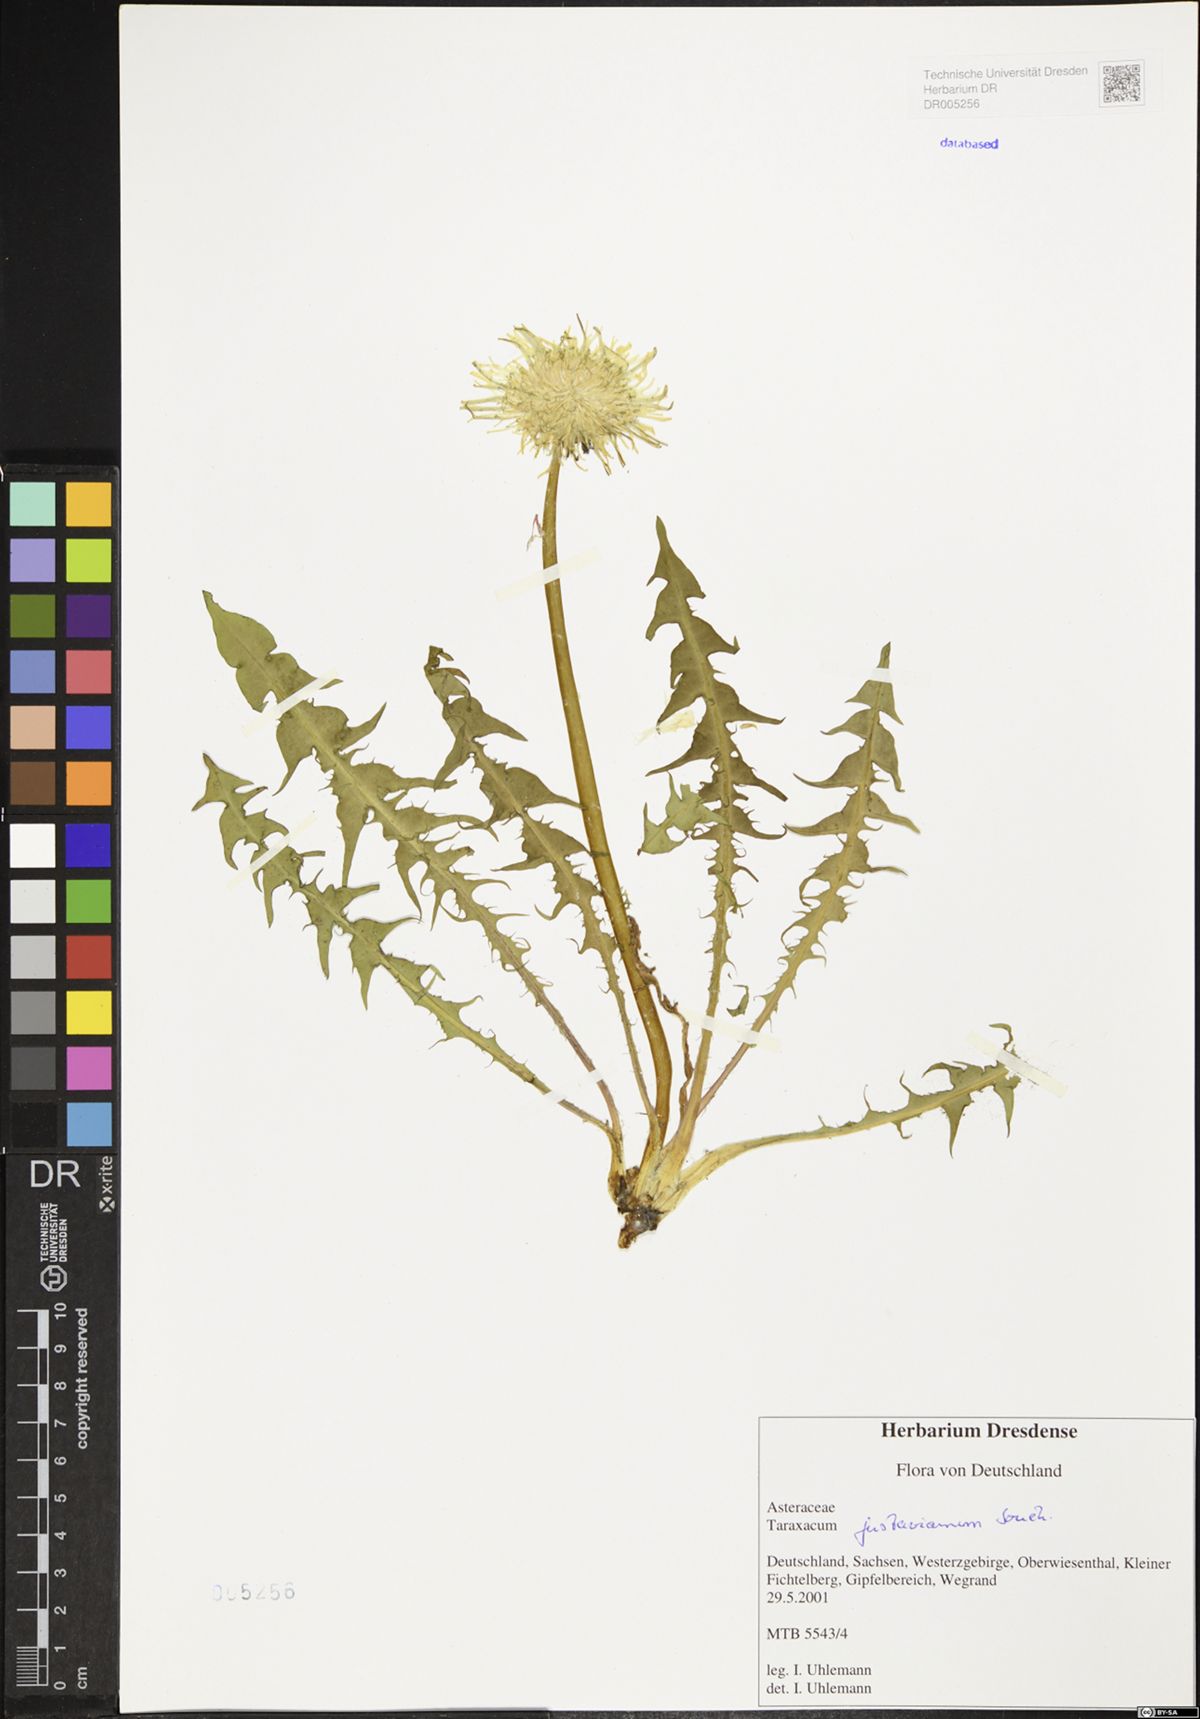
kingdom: Plantae
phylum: Tracheophyta
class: Magnoliopsida
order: Asterales
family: Asteraceae
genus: Taraxacum
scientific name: Taraxacum gustavianum
